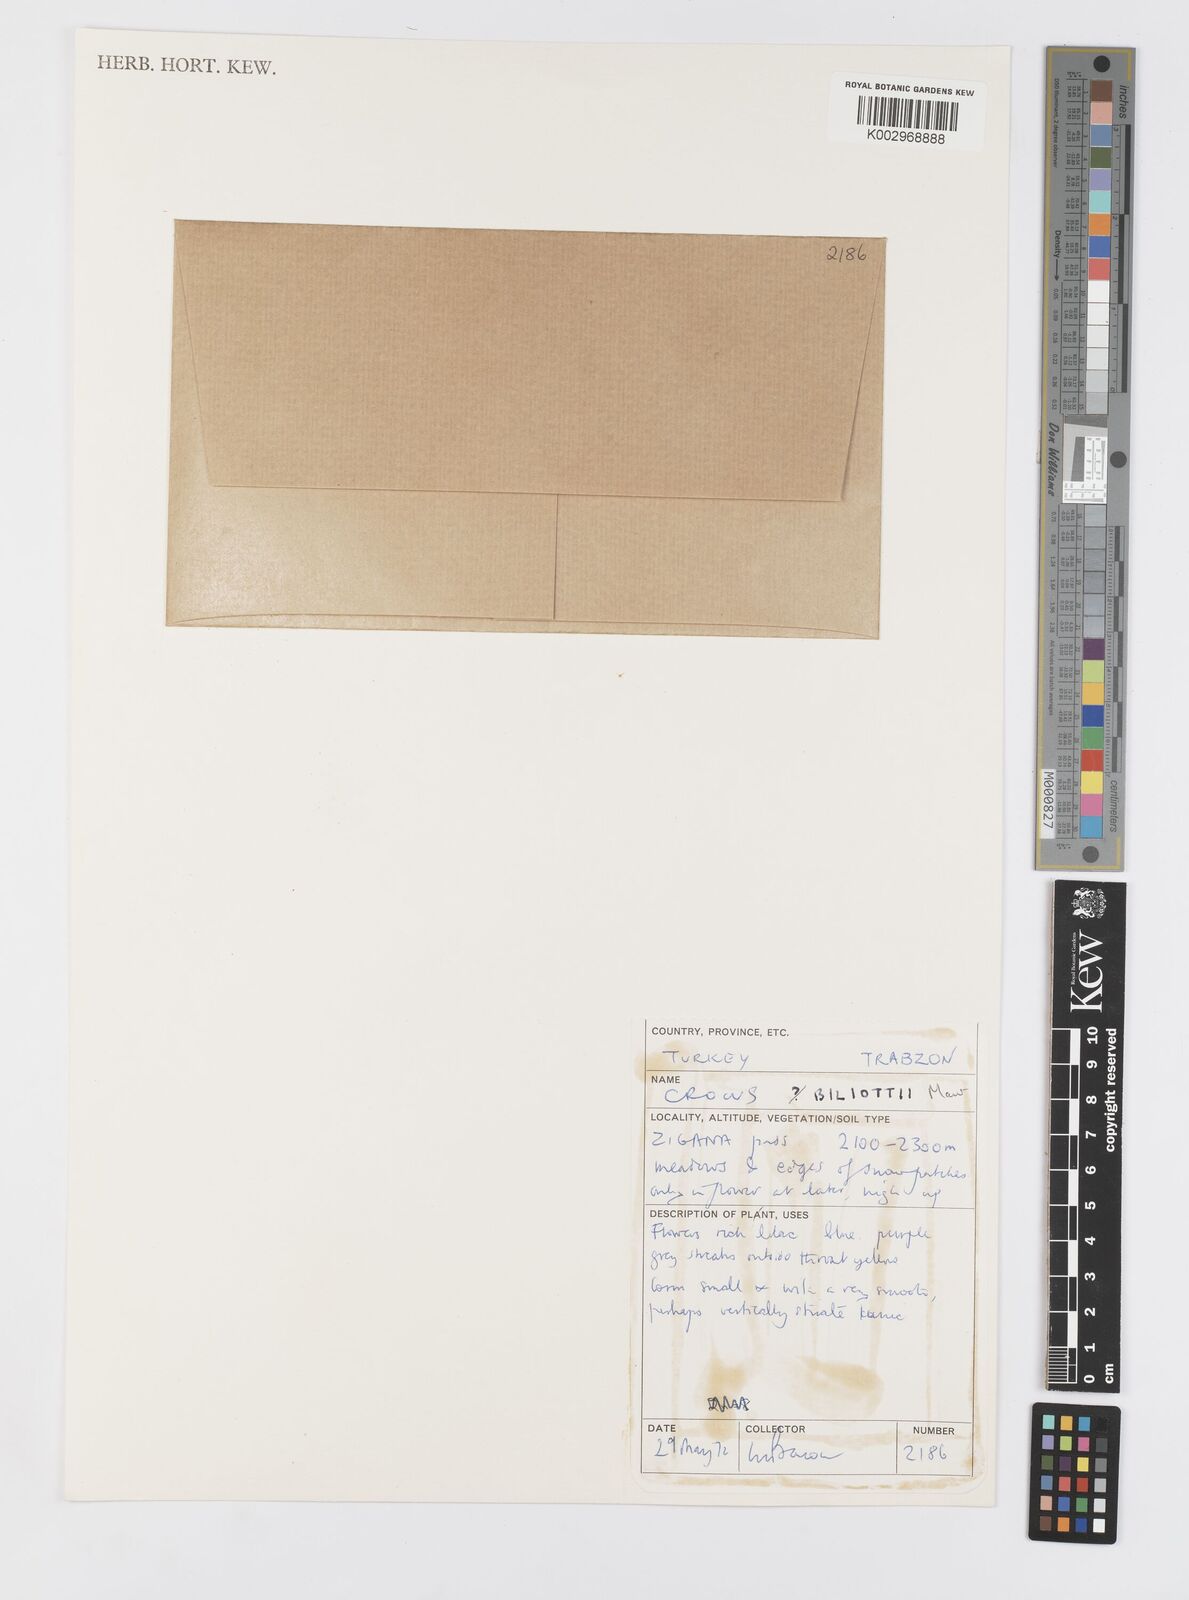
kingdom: Plantae
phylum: Tracheophyta
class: Liliopsida
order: Asparagales
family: Iridaceae
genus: Crocus
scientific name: Crocus aerius
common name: Aerial crocus
